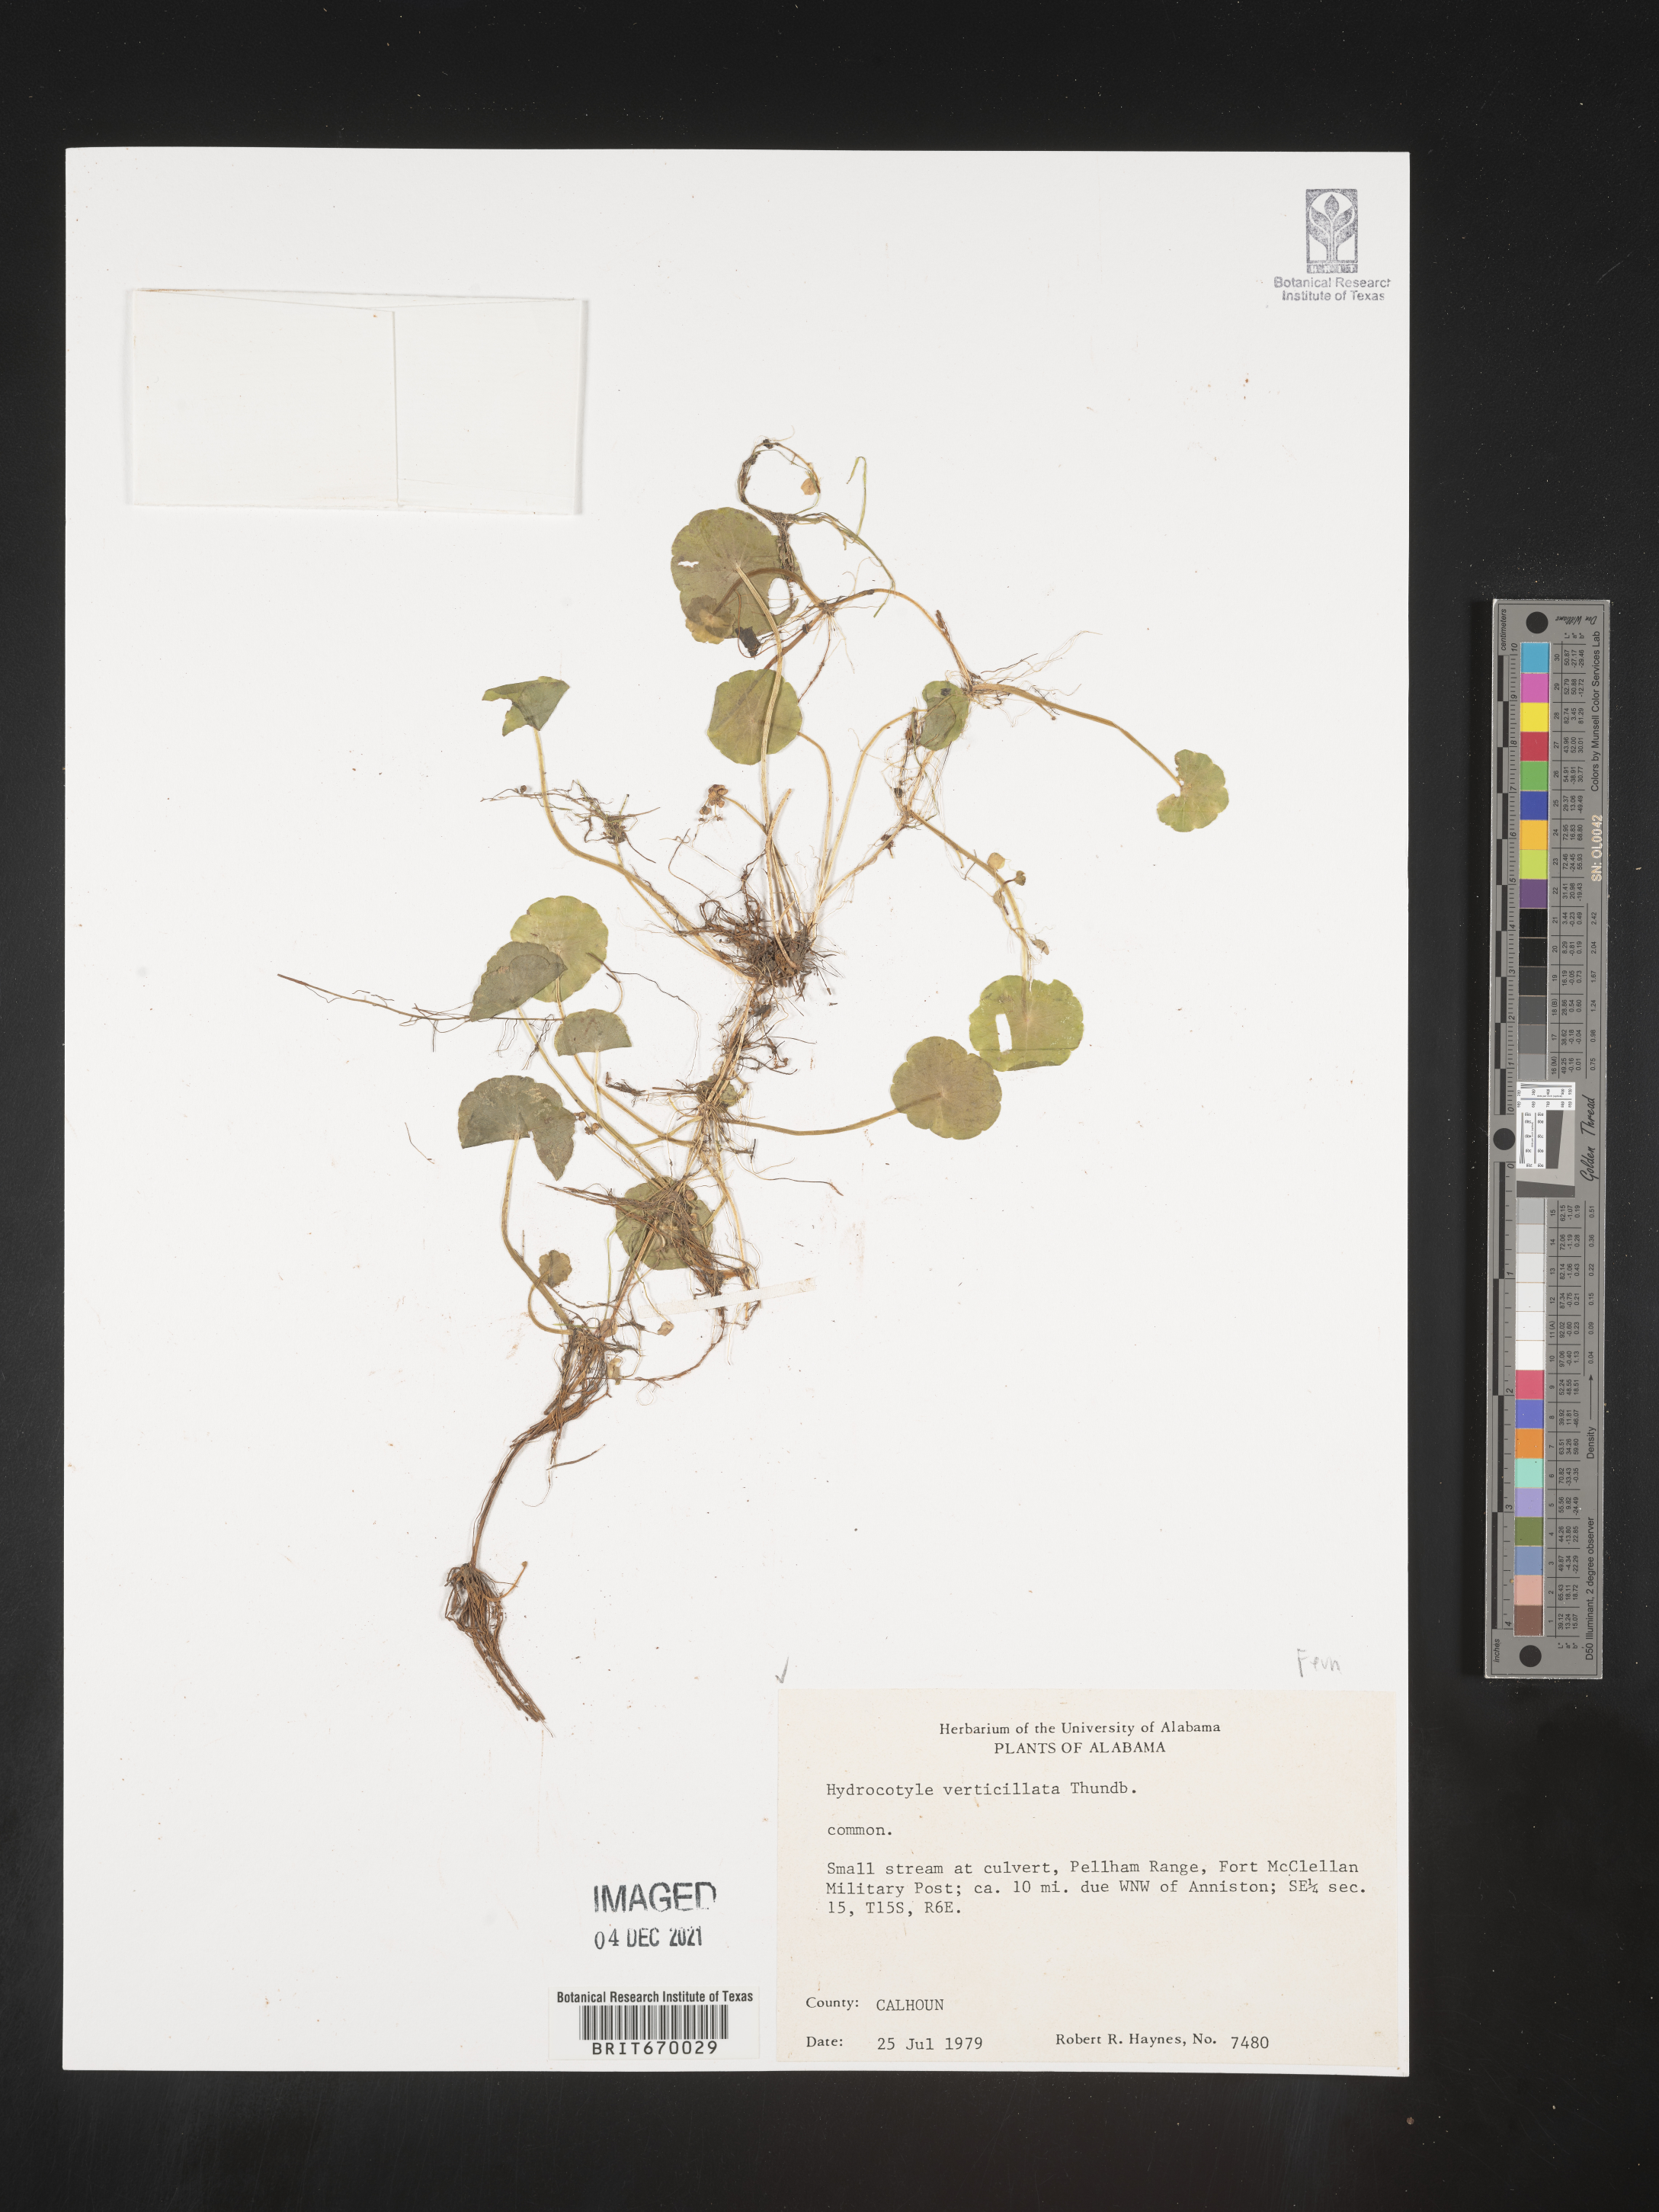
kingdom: Plantae
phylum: Tracheophyta
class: Magnoliopsida
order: Apiales
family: Araliaceae
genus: Hydrocotyle
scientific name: Hydrocotyle verticillata
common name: Whorled marshpennywort
